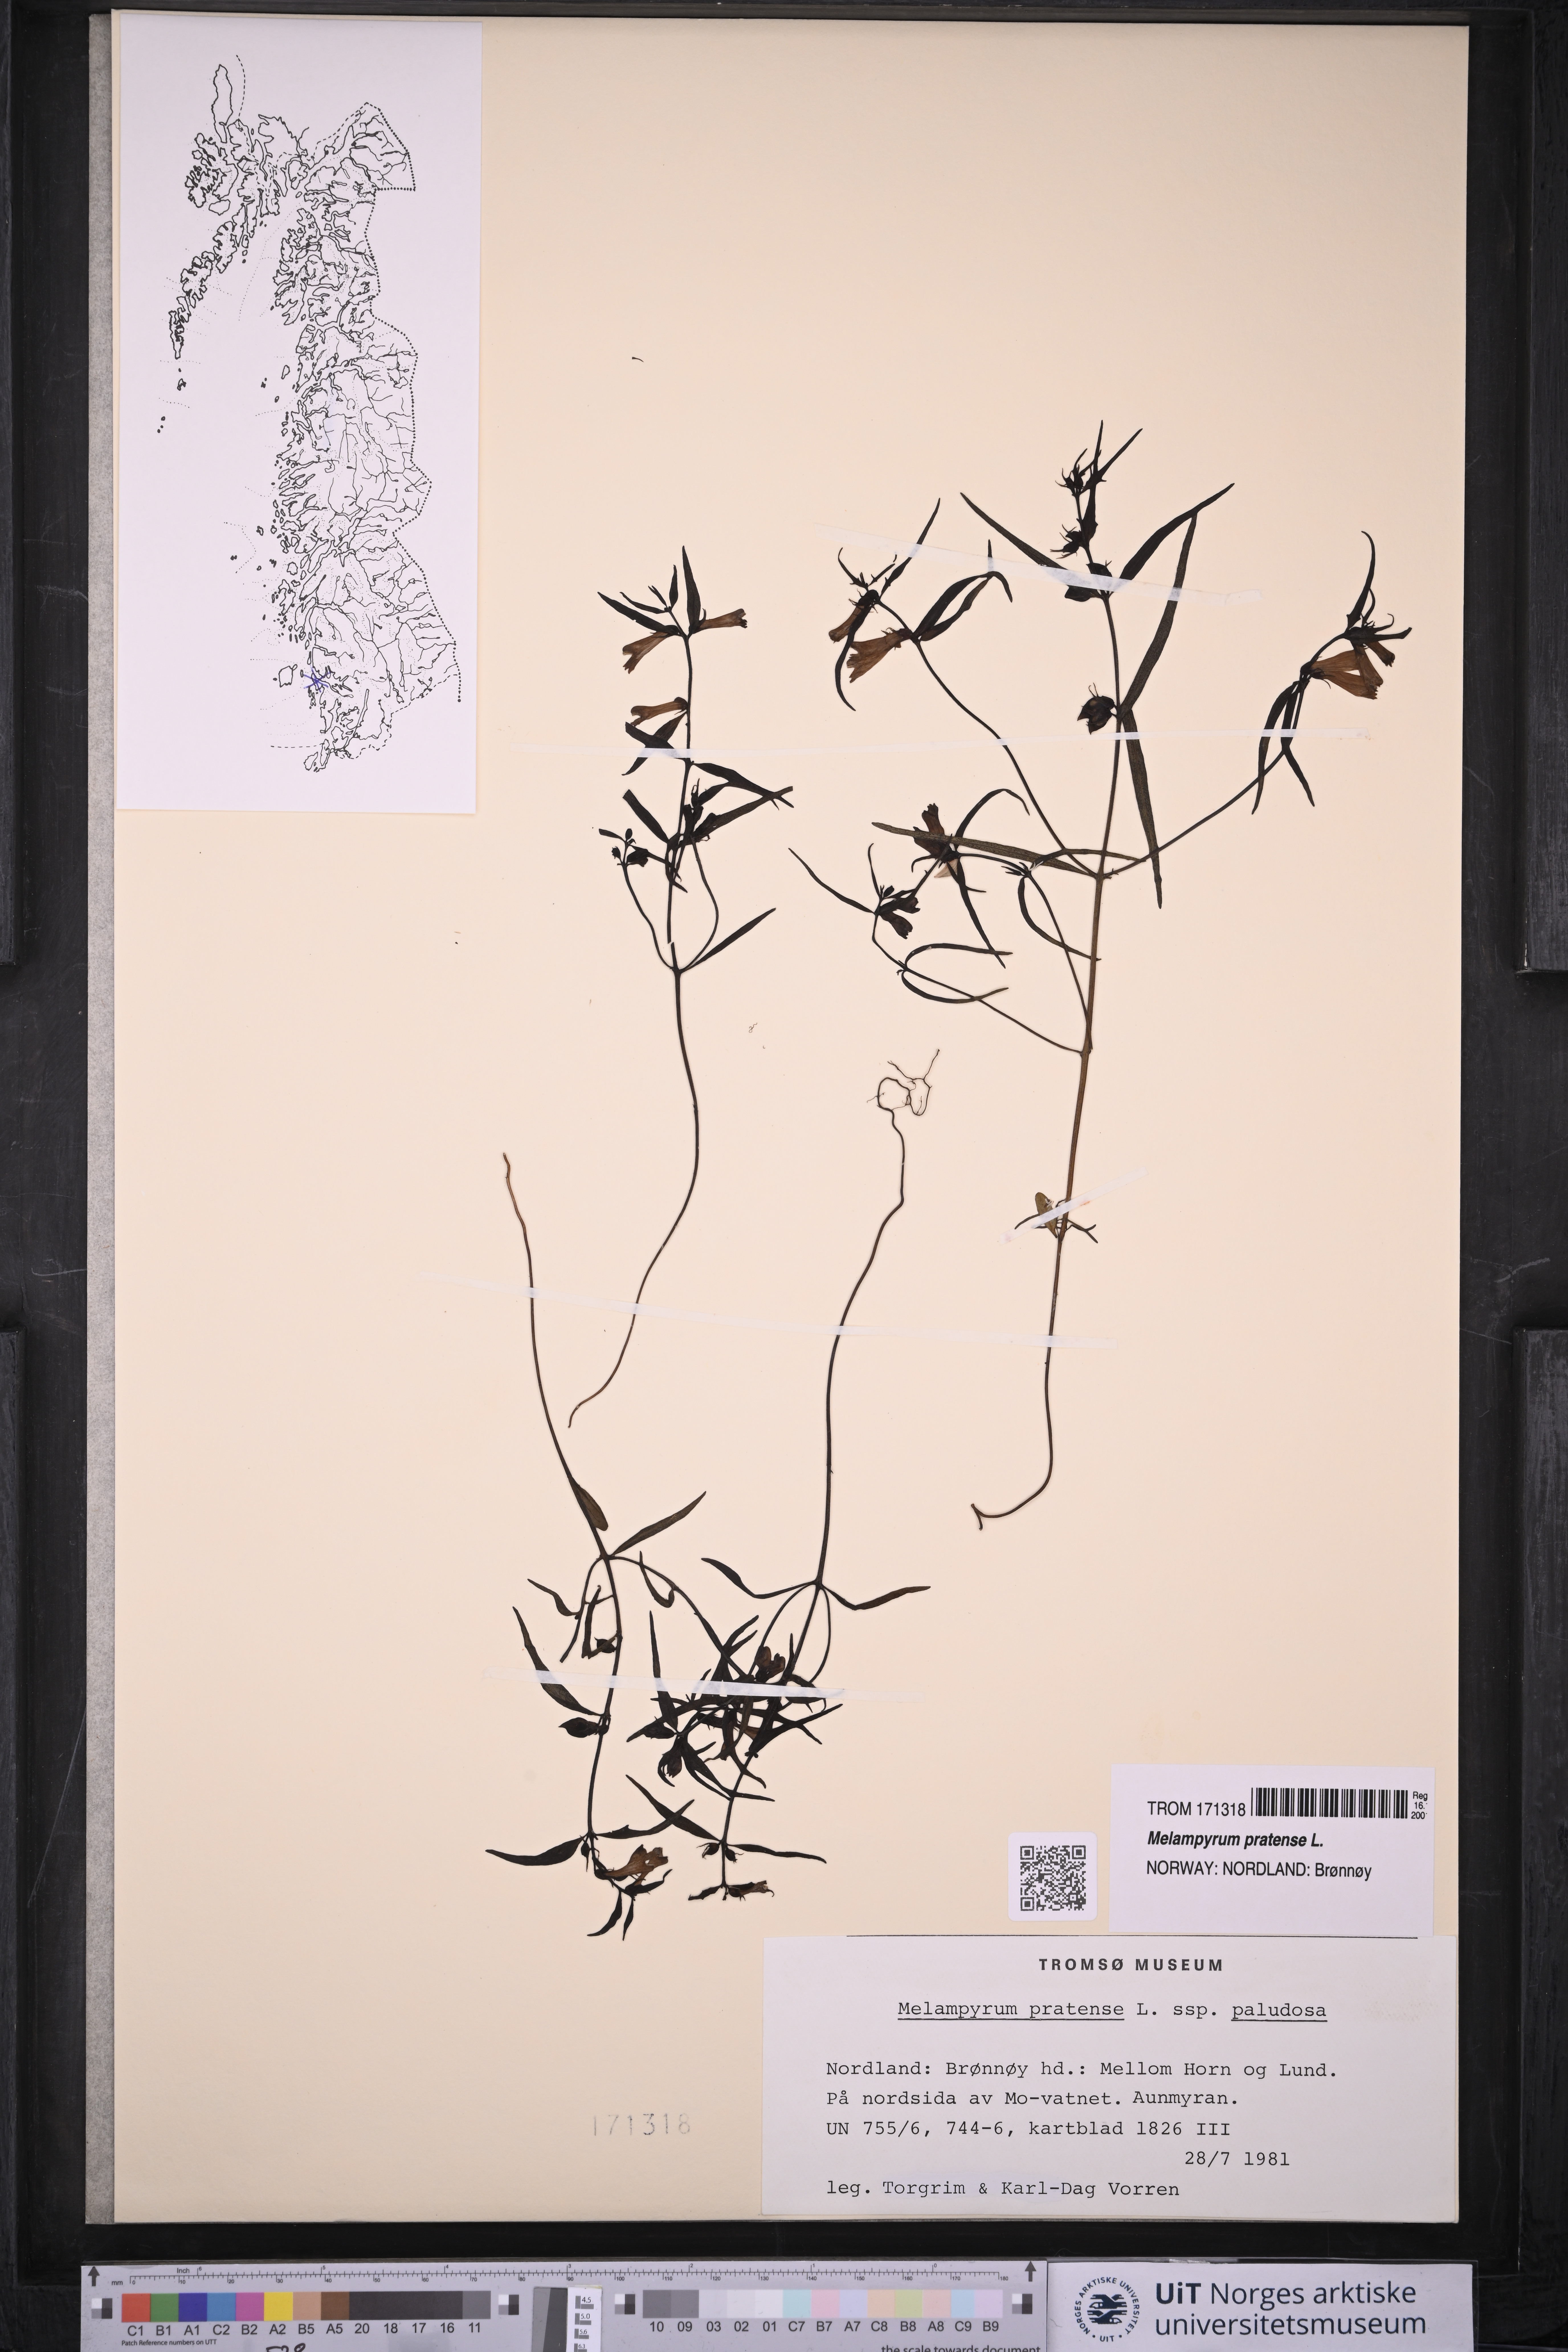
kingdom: Plantae
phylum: Tracheophyta
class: Magnoliopsida
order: Lamiales
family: Orobanchaceae
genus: Melampyrum
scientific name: Melampyrum pratense
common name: Common cow-wheat
